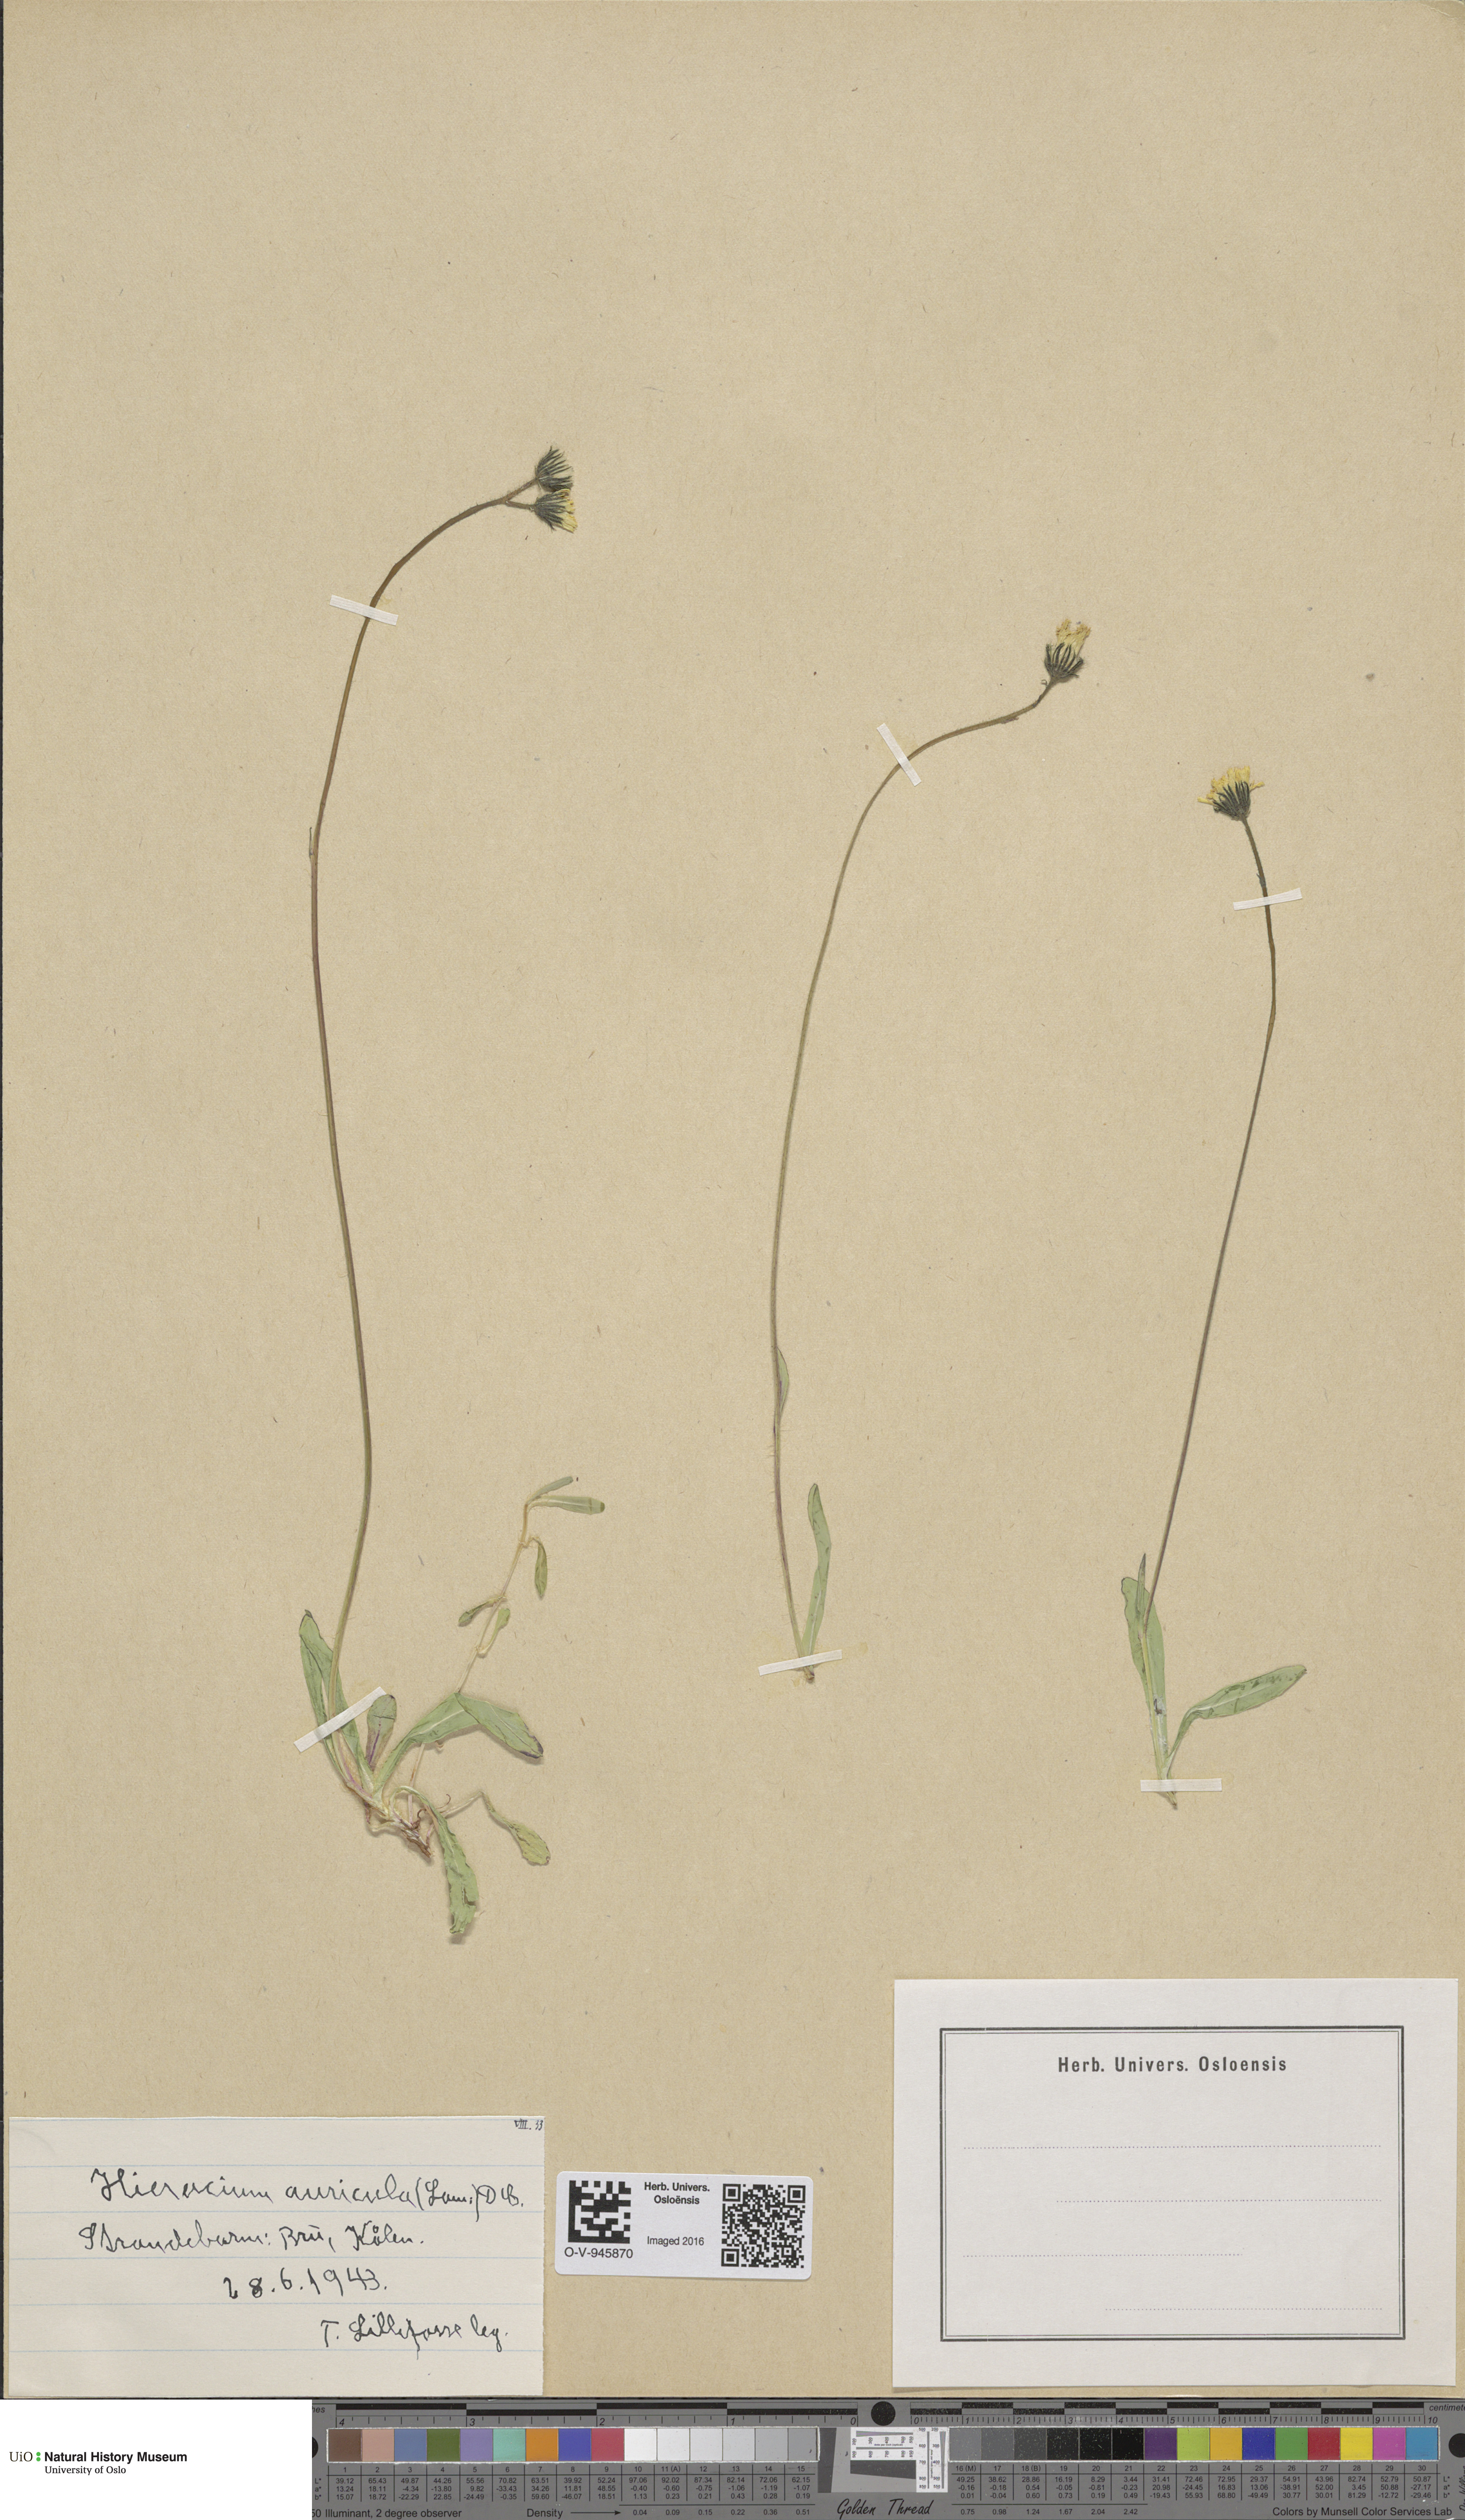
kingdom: Plantae
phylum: Tracheophyta
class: Magnoliopsida
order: Asterales
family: Asteraceae
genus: Pilosella
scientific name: Pilosella lactucella
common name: Glaucous fox-and-cubs
